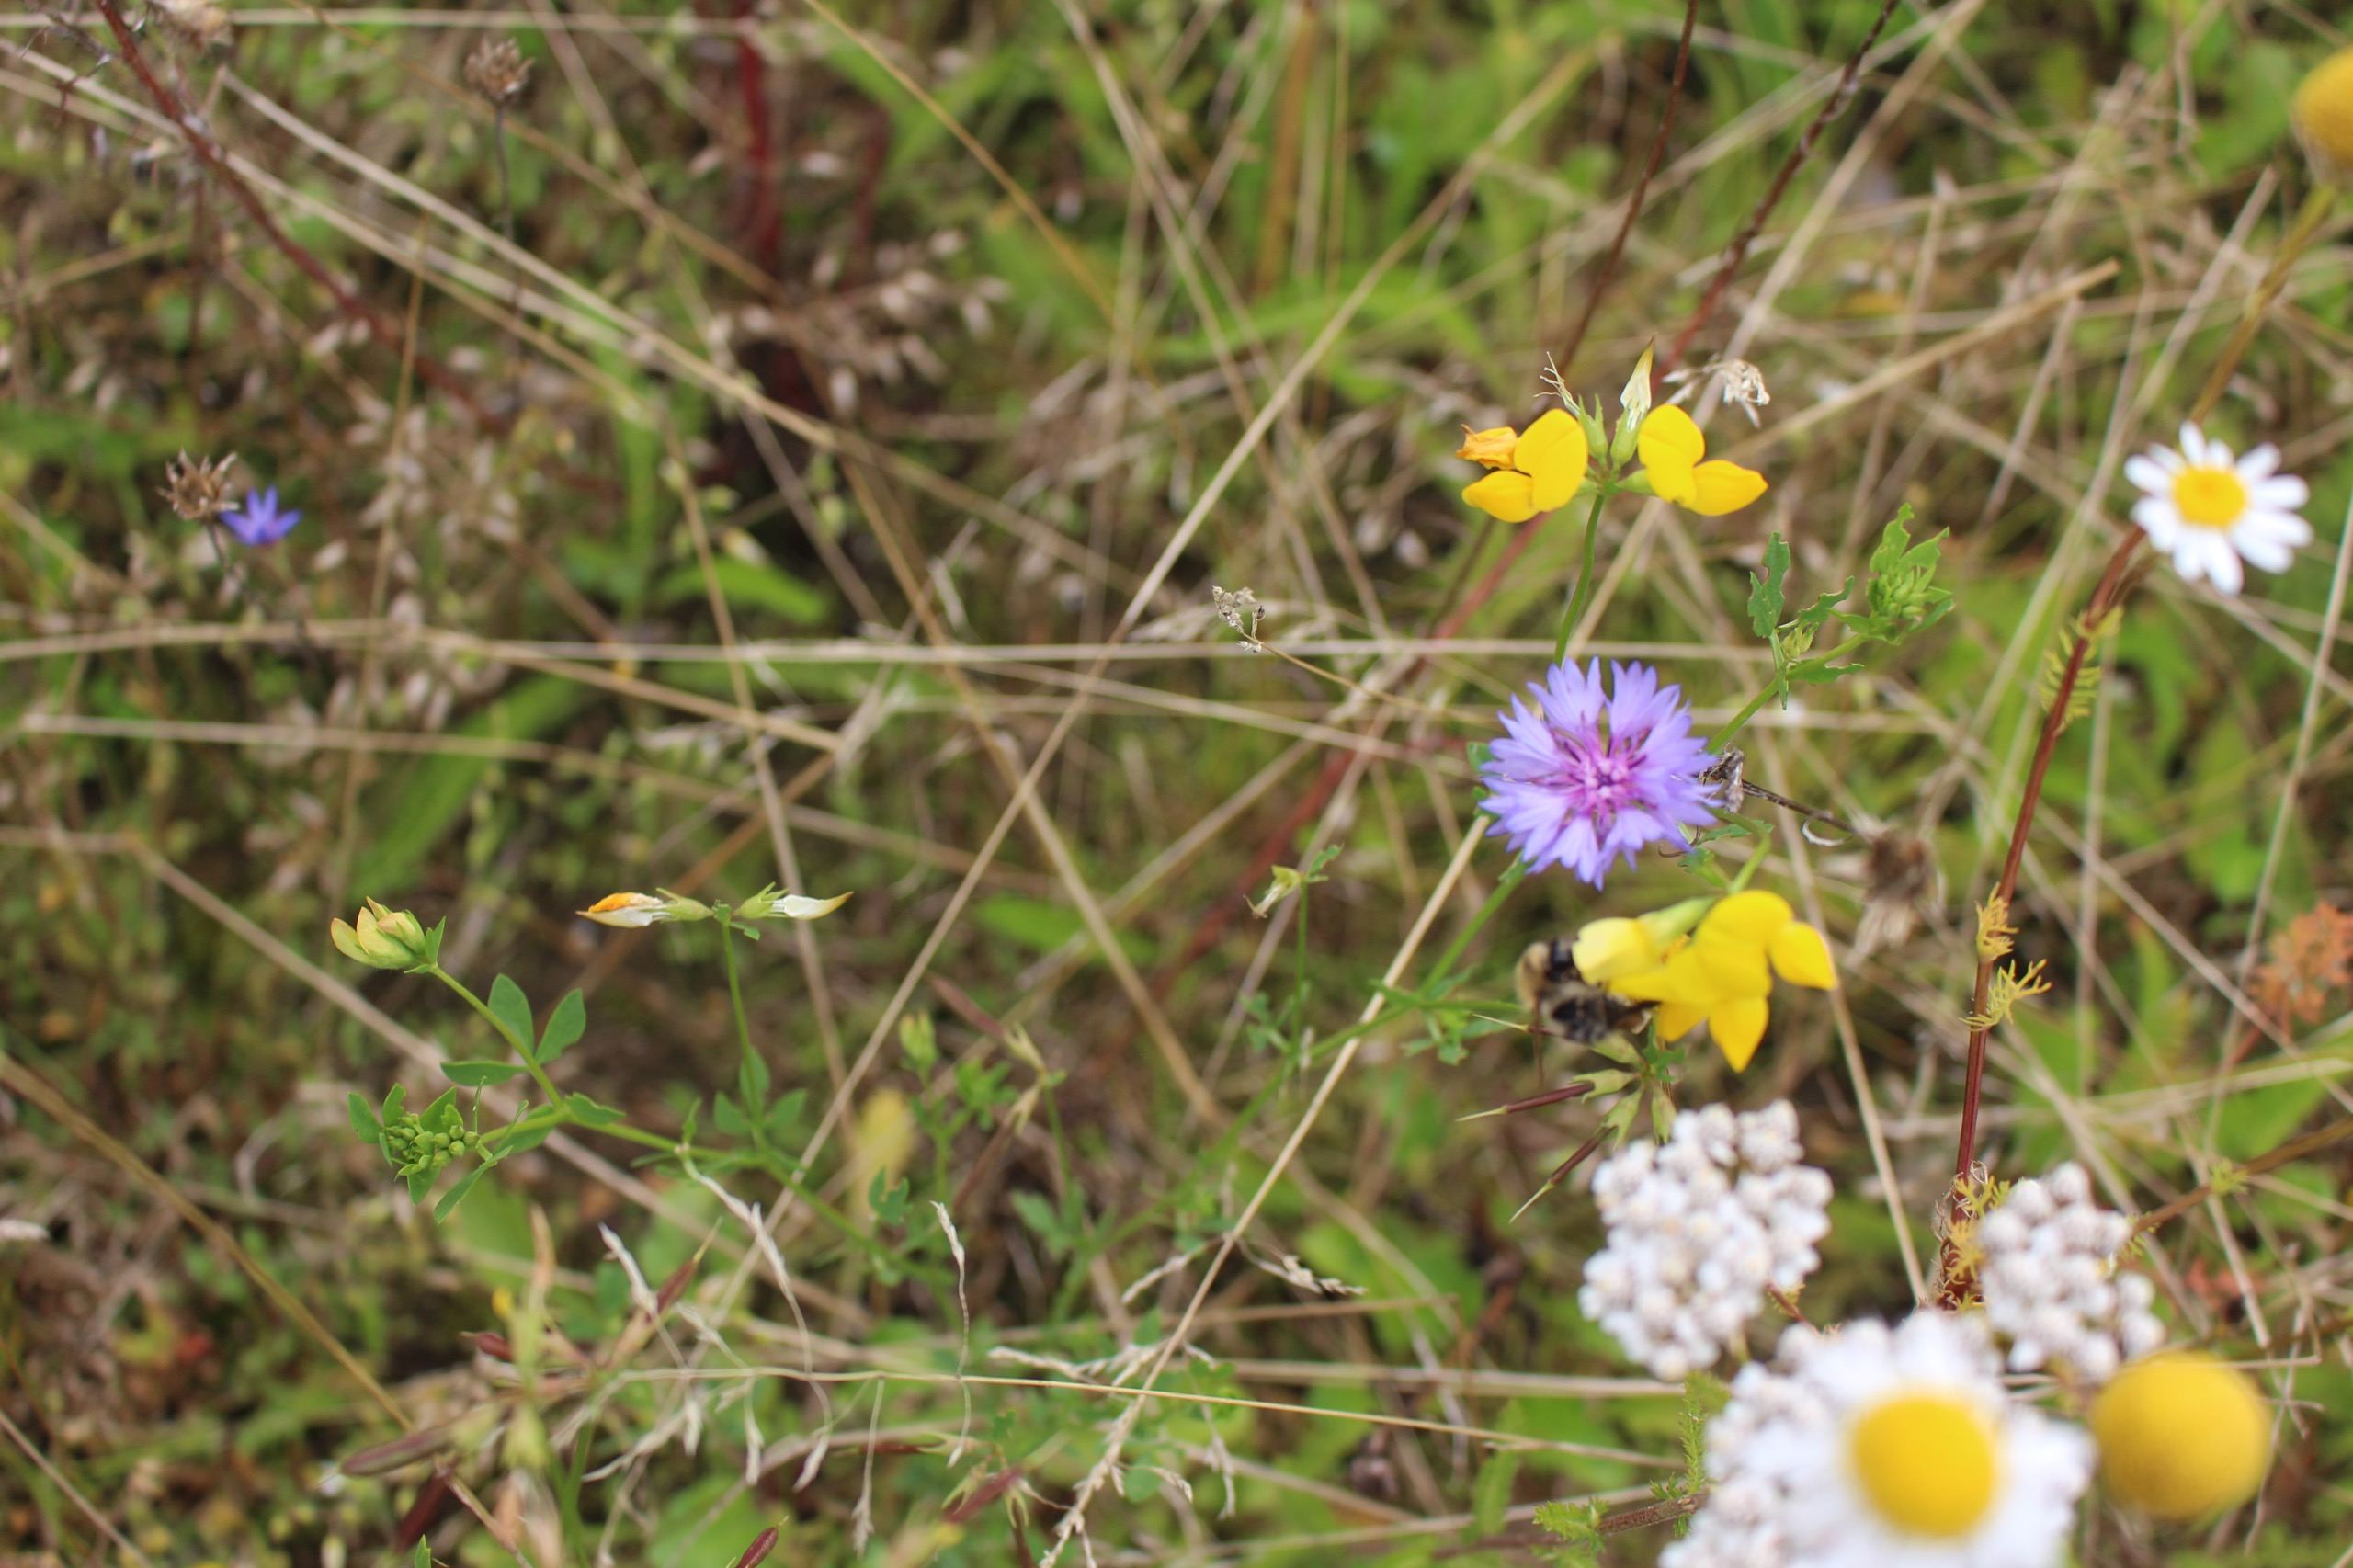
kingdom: Plantae
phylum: Tracheophyta
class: Magnoliopsida
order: Asterales
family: Asteraceae
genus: Centaurea
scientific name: Centaurea cyanus
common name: Kornblomst
